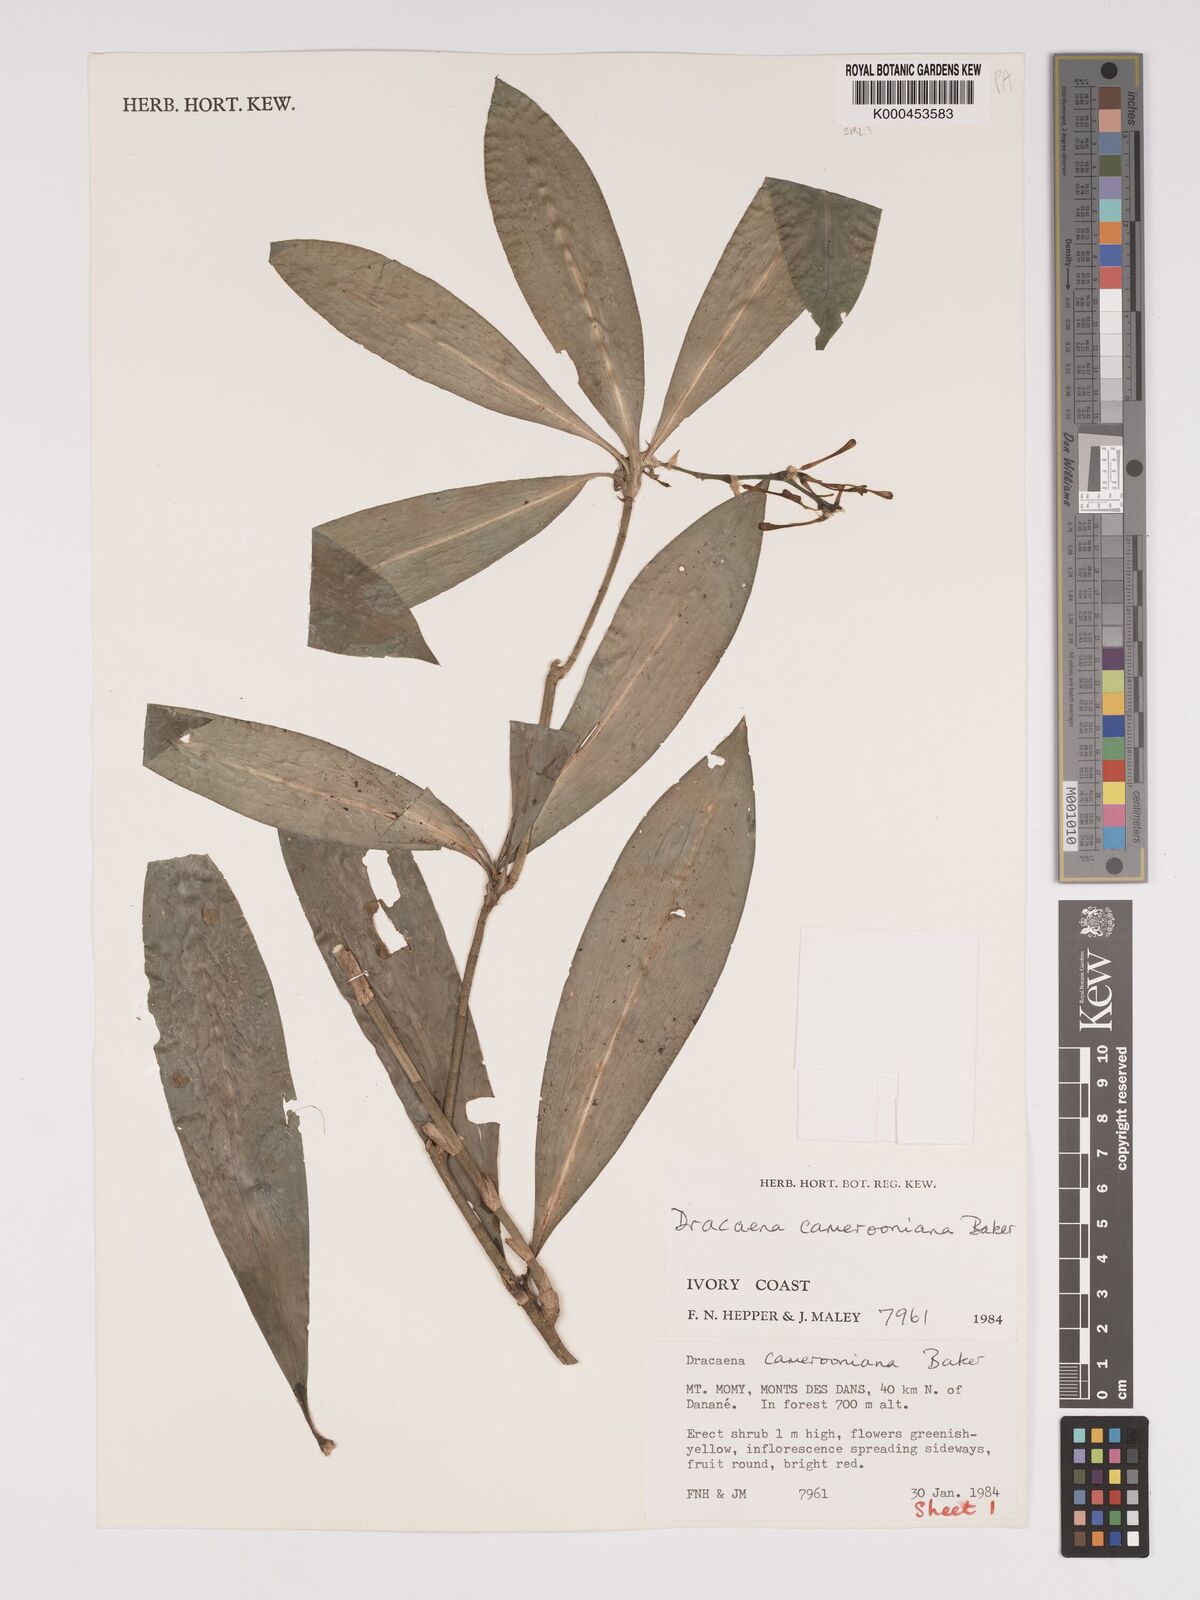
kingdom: Plantae
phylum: Tracheophyta
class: Liliopsida
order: Asparagales
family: Asparagaceae
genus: Dracaena
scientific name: Dracaena camerooniana
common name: Dragon tree
